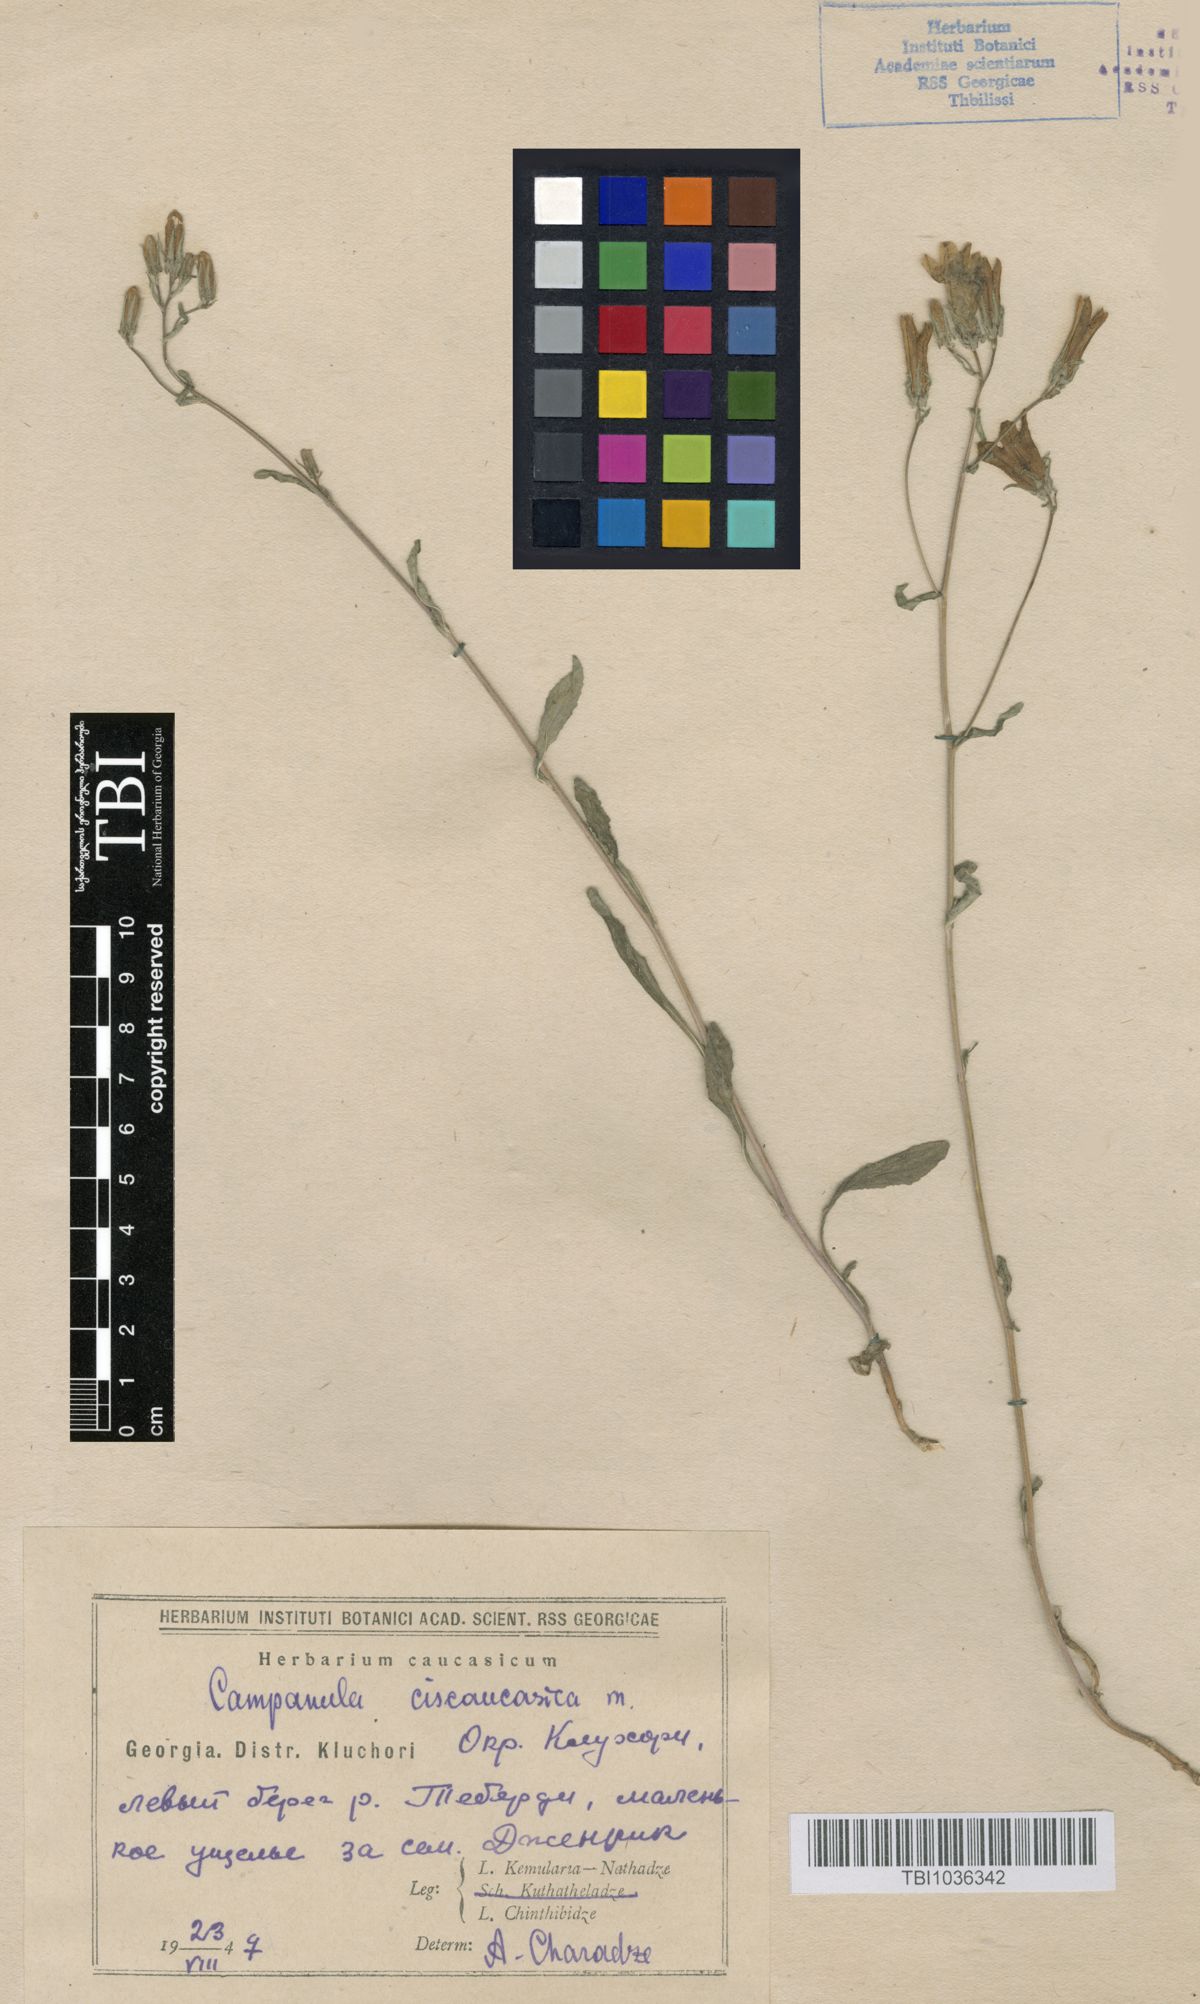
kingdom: Plantae
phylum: Tracheophyta
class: Magnoliopsida
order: Asterales
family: Campanulaceae
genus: Campanula
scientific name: Campanula sibirica
